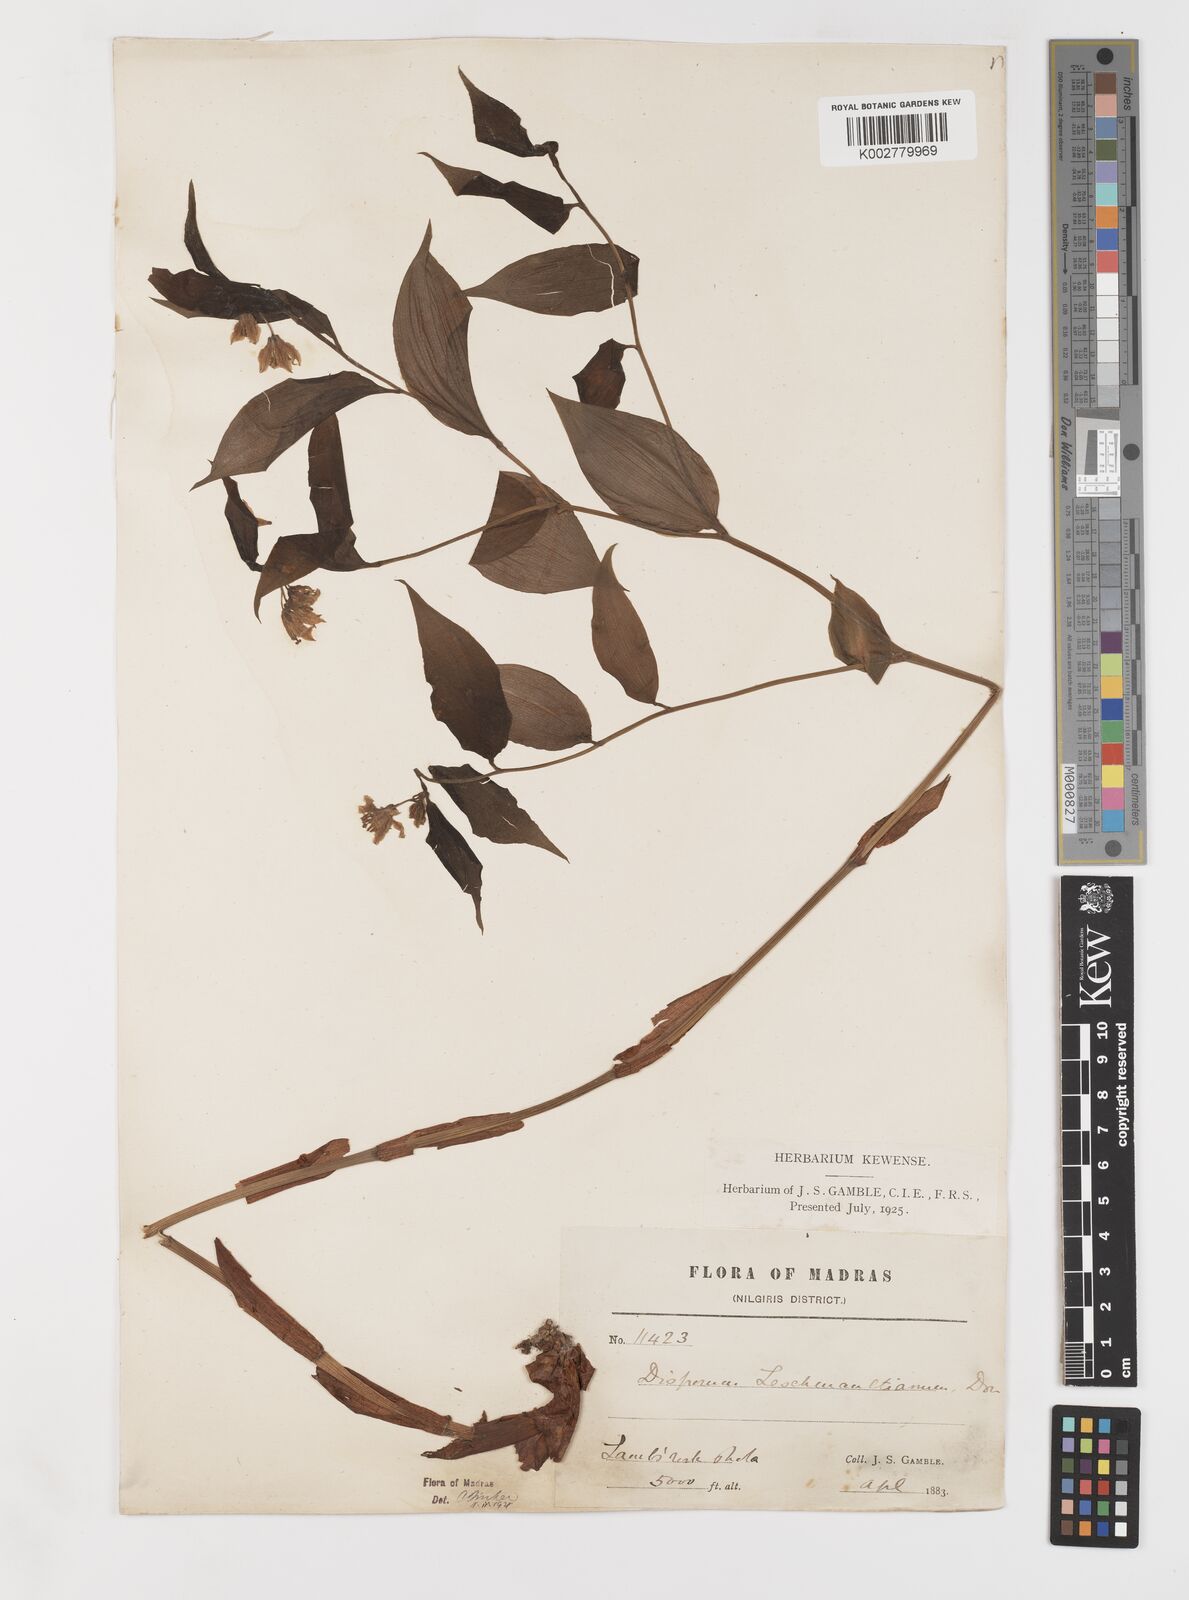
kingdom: Plantae
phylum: Tracheophyta
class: Liliopsida
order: Liliales
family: Colchicaceae
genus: Disporum
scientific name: Disporum cantoniense
